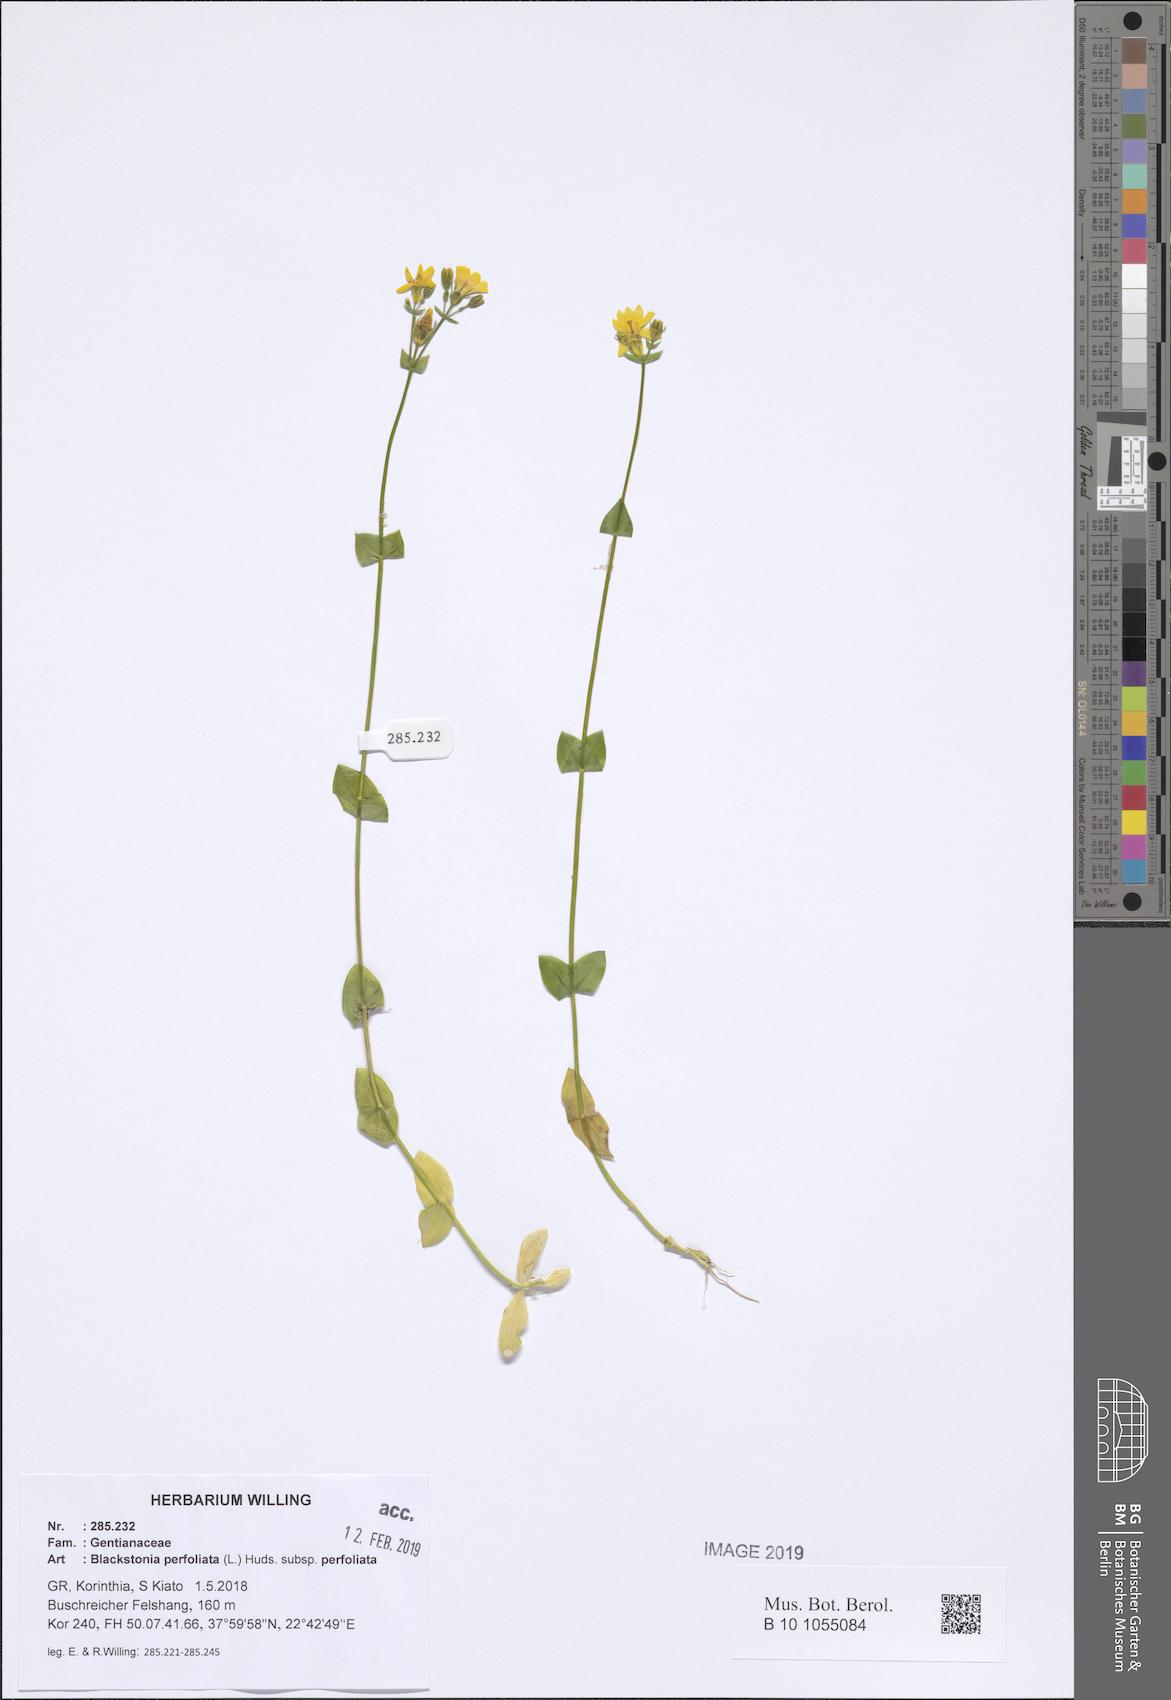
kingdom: Plantae
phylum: Tracheophyta
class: Magnoliopsida
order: Gentianales
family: Gentianaceae
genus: Blackstonia
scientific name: Blackstonia perfoliata
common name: Yellow-wort
